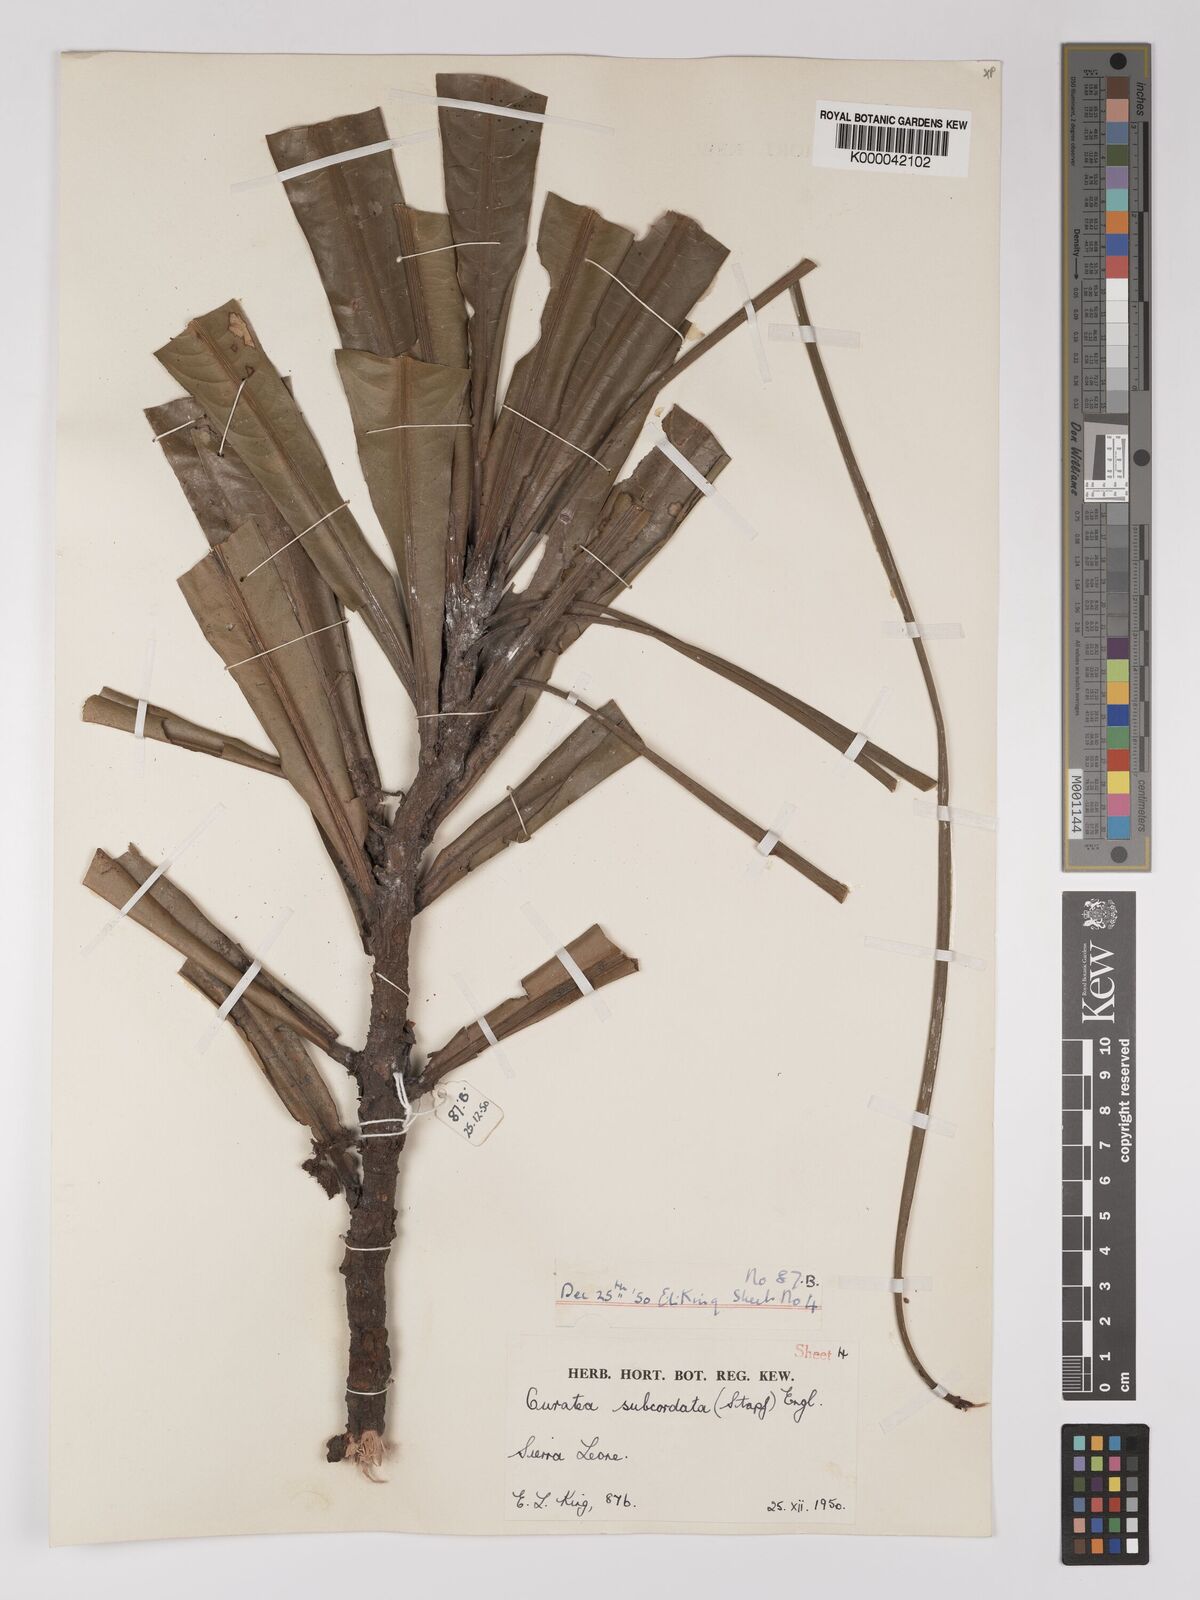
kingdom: Plantae
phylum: Tracheophyta
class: Magnoliopsida
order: Malpighiales
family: Ochnaceae
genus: Campylospermum
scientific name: Campylospermum subcordatum
